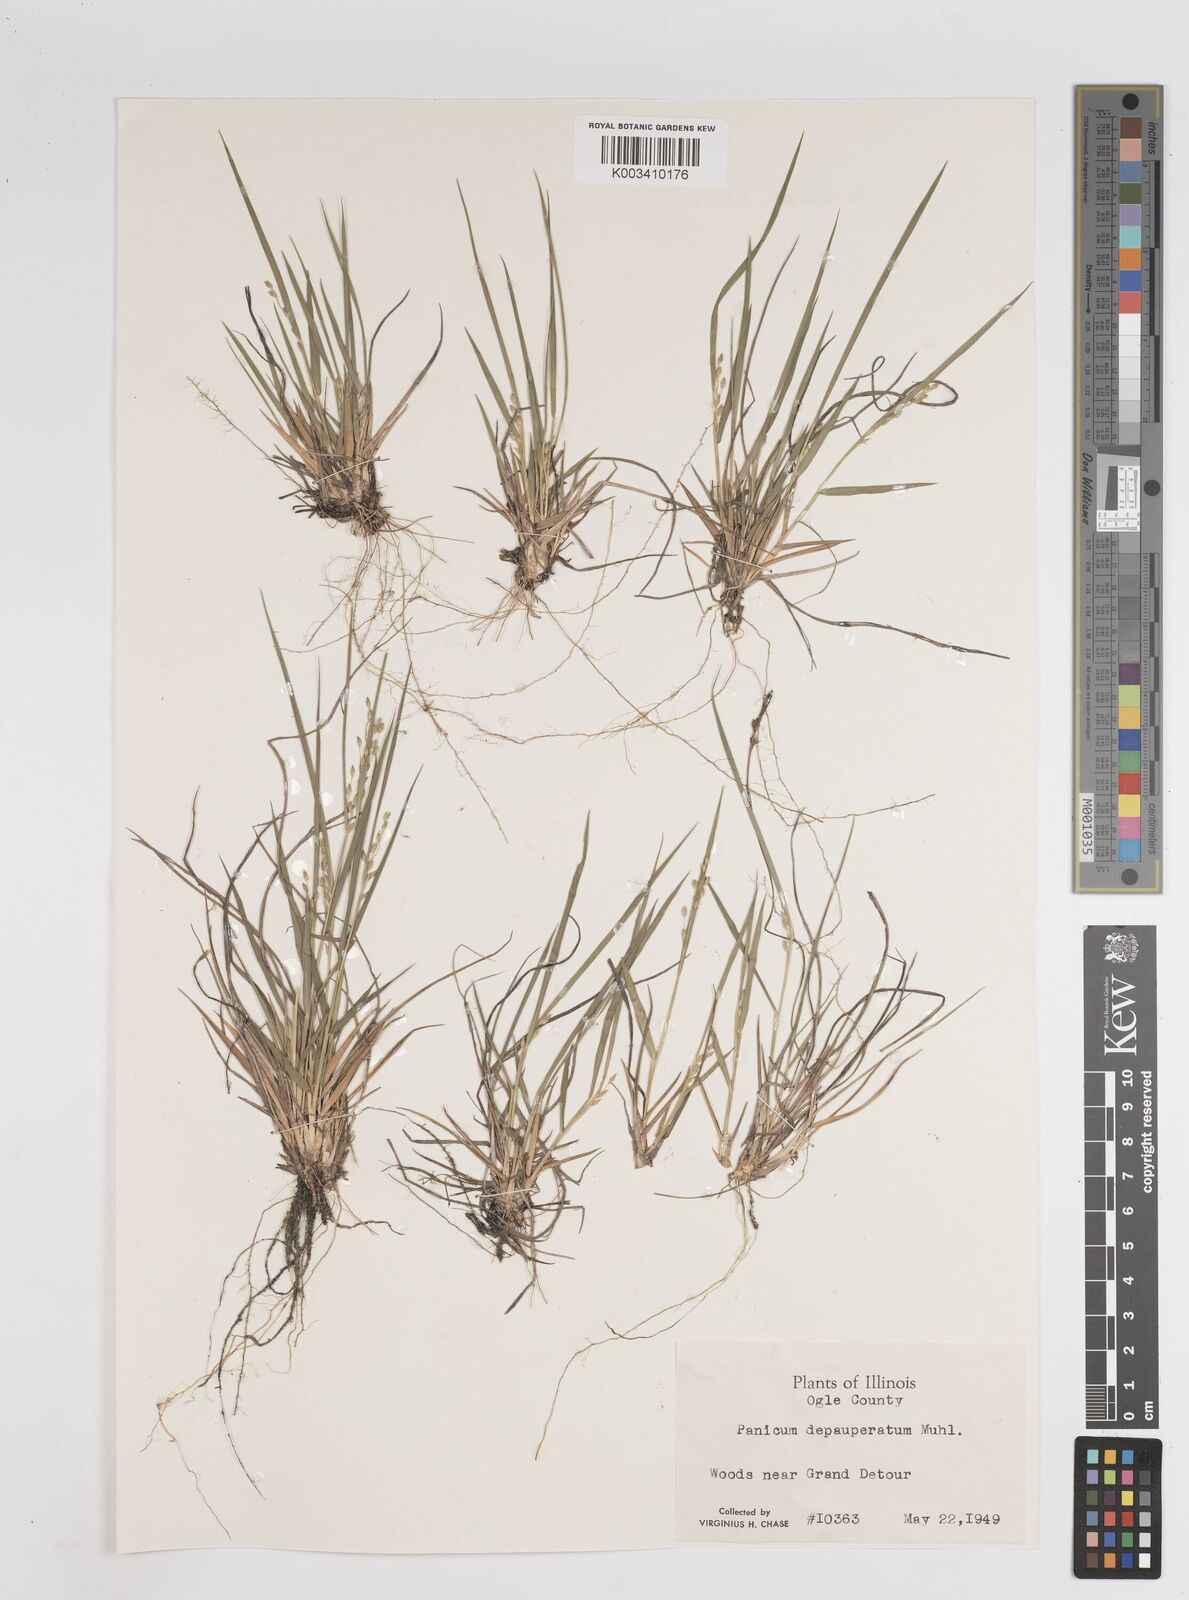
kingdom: Plantae
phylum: Tracheophyta
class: Liliopsida
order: Poales
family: Poaceae
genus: Dichanthelium
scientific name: Dichanthelium depauperatum
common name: Depauperate panicgrass
